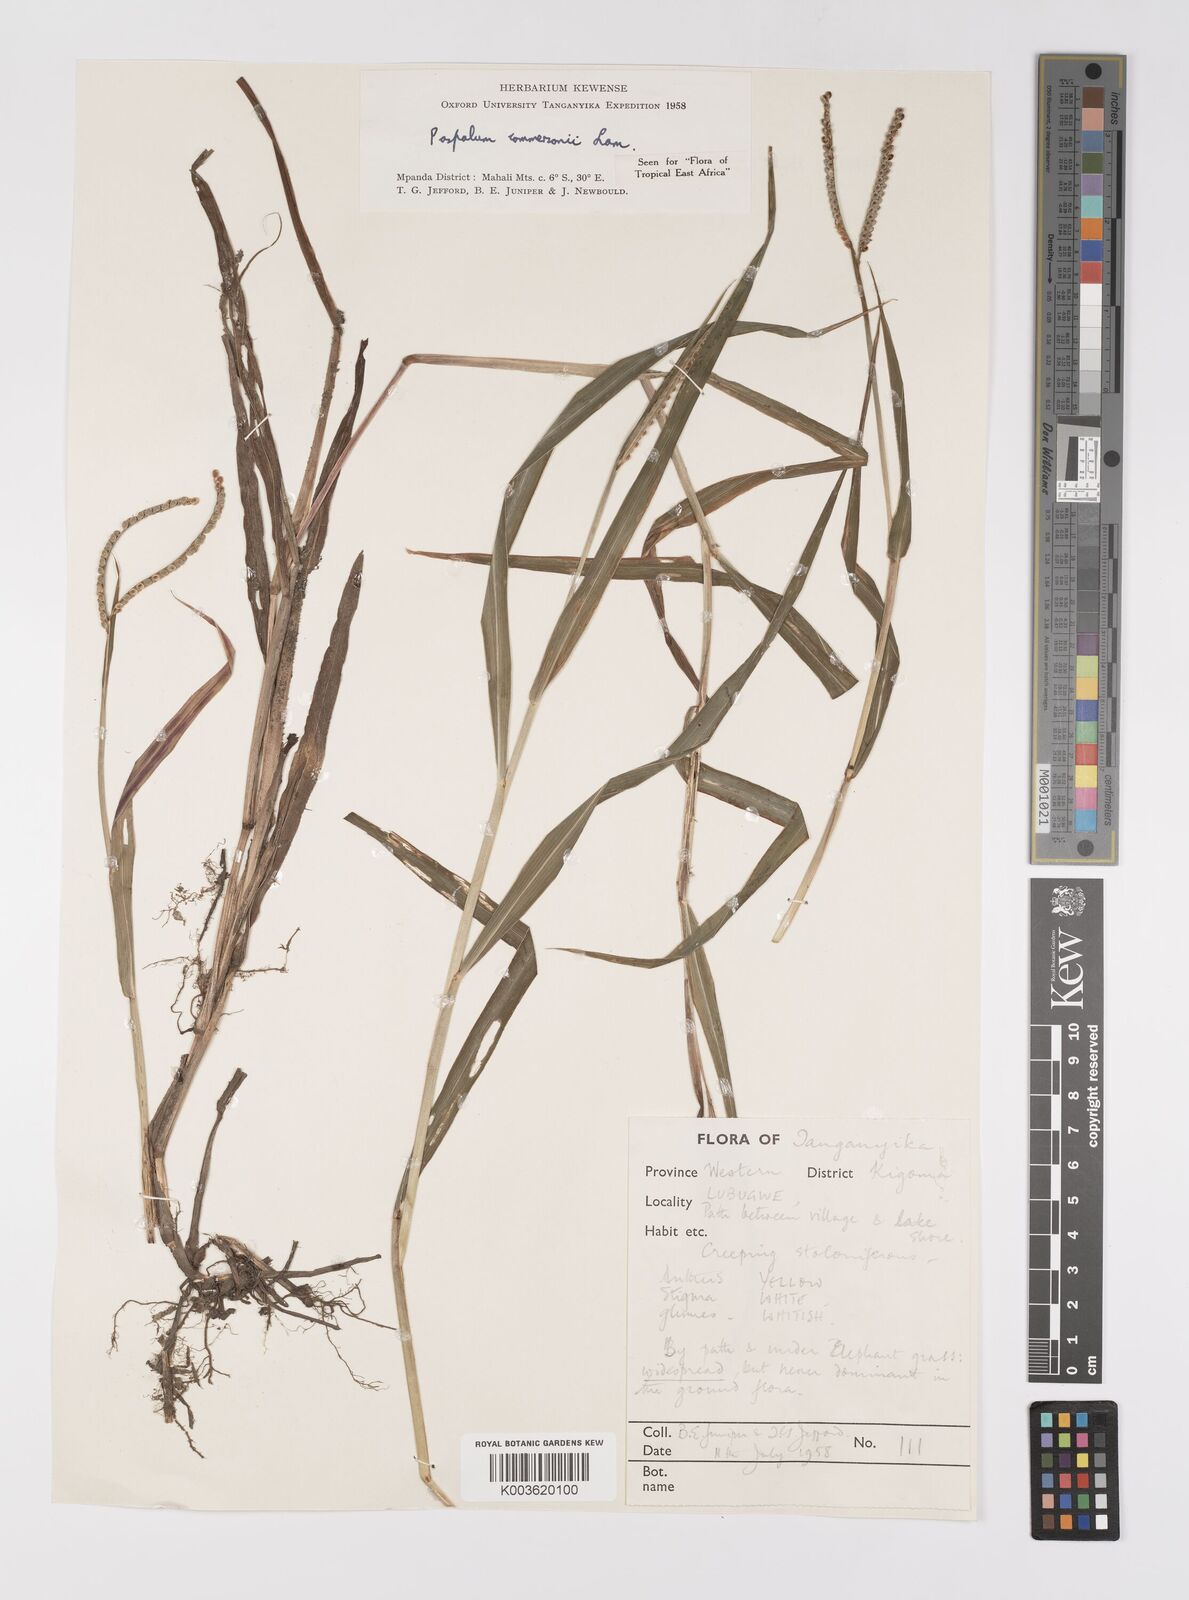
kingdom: Plantae
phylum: Tracheophyta
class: Liliopsida
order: Poales
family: Poaceae
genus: Paspalum
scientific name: Paspalum scrobiculatum
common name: Kodo millet
